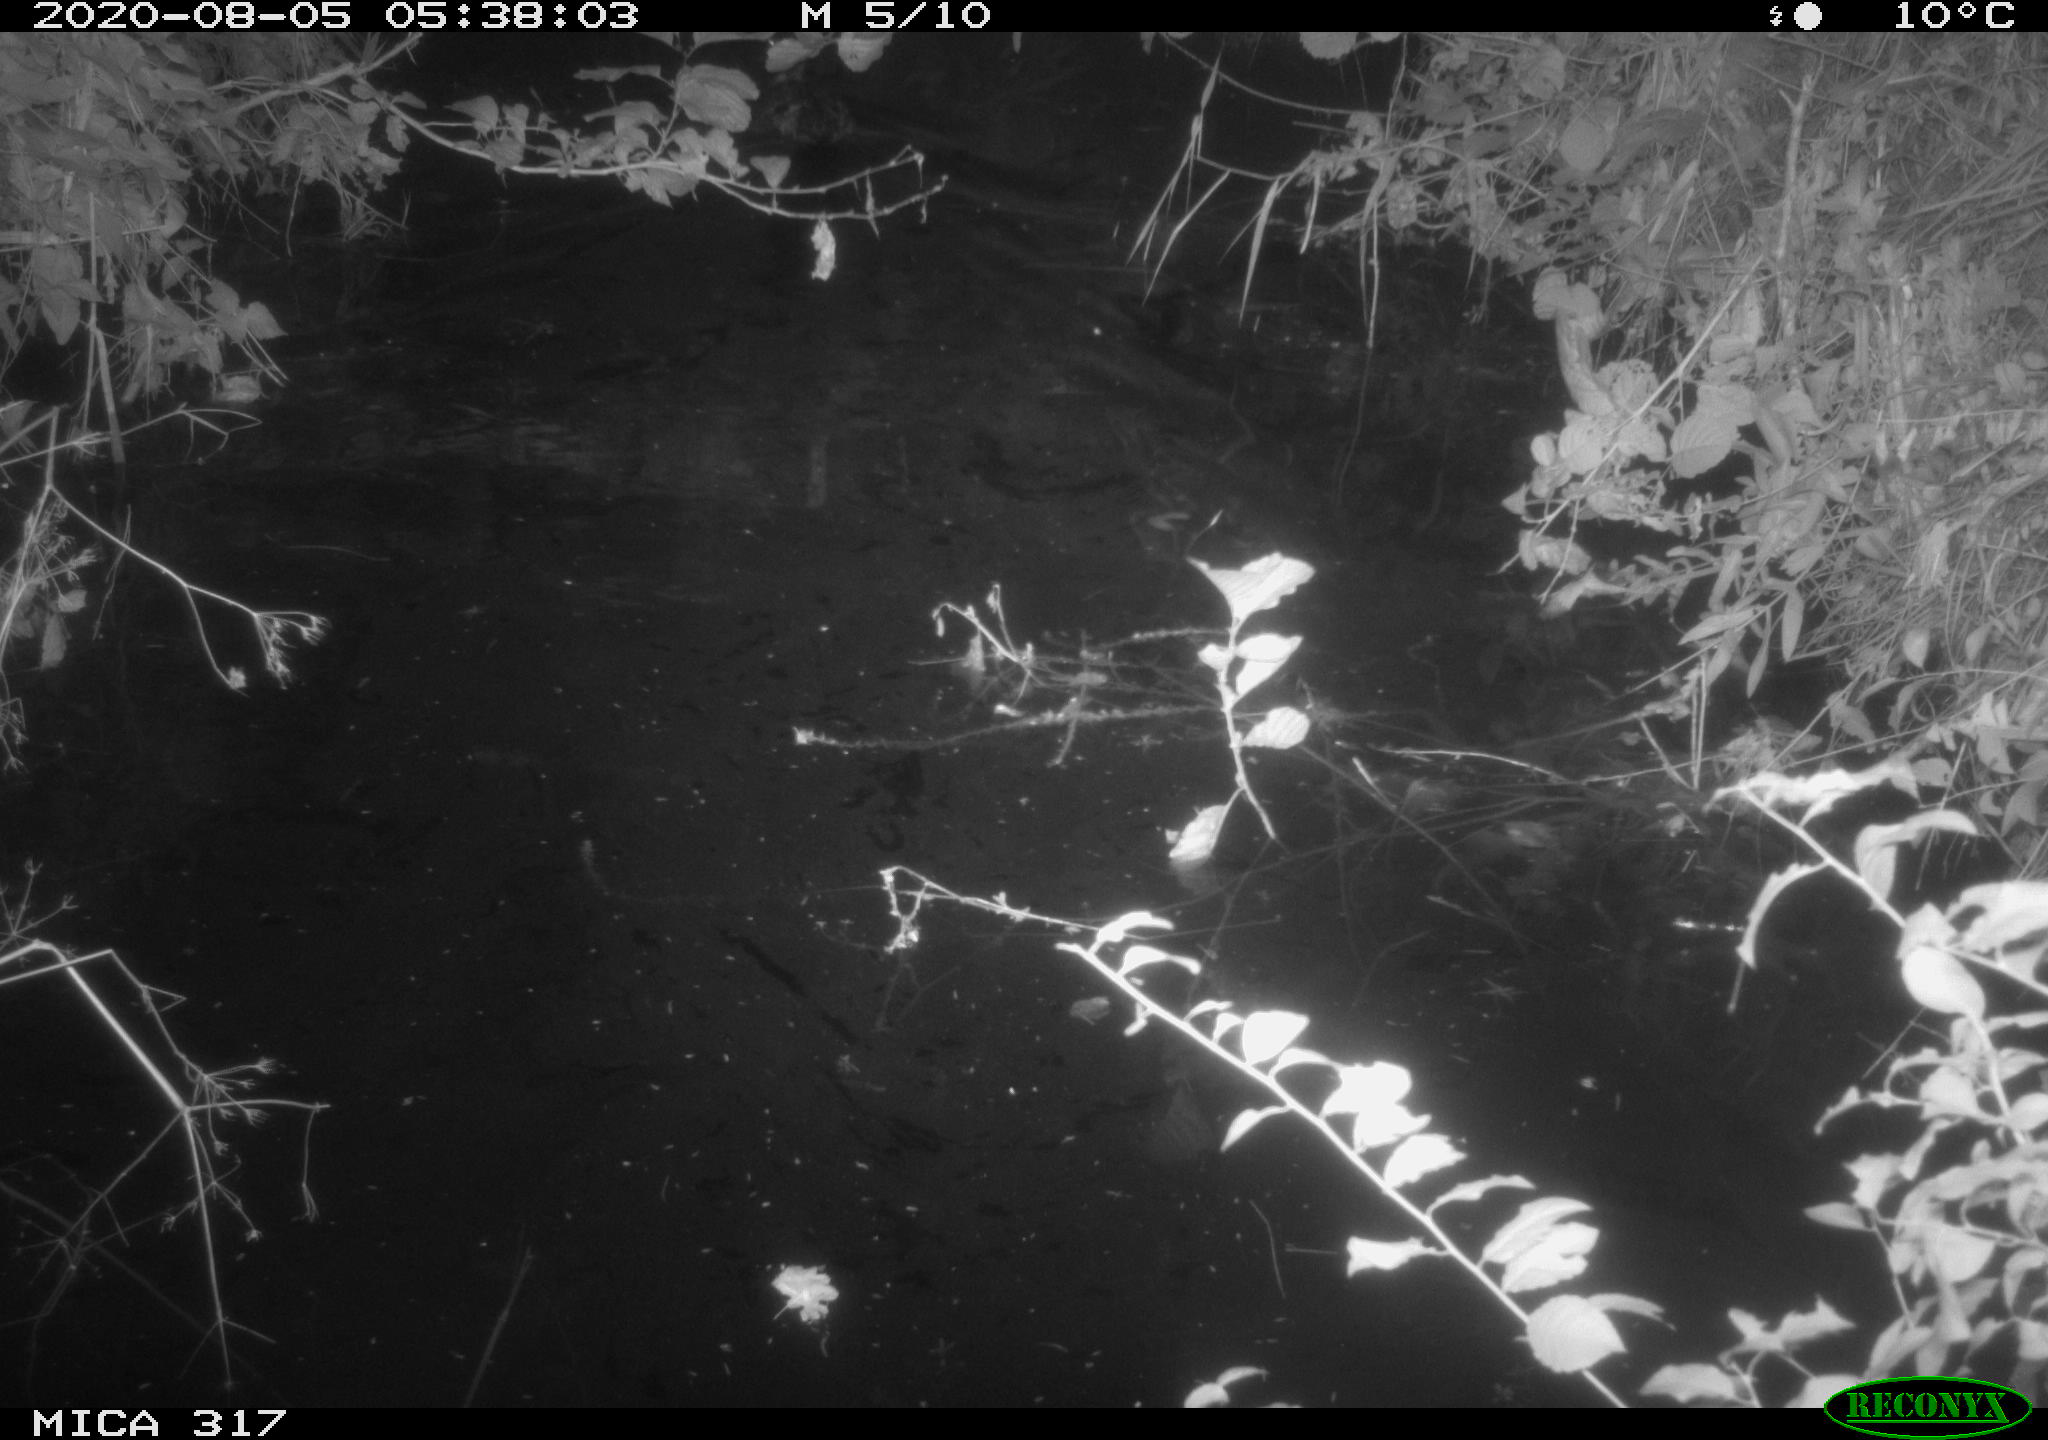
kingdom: Animalia
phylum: Chordata
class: Aves
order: Anseriformes
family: Anatidae
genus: Anas
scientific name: Anas platyrhynchos
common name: Mallard
